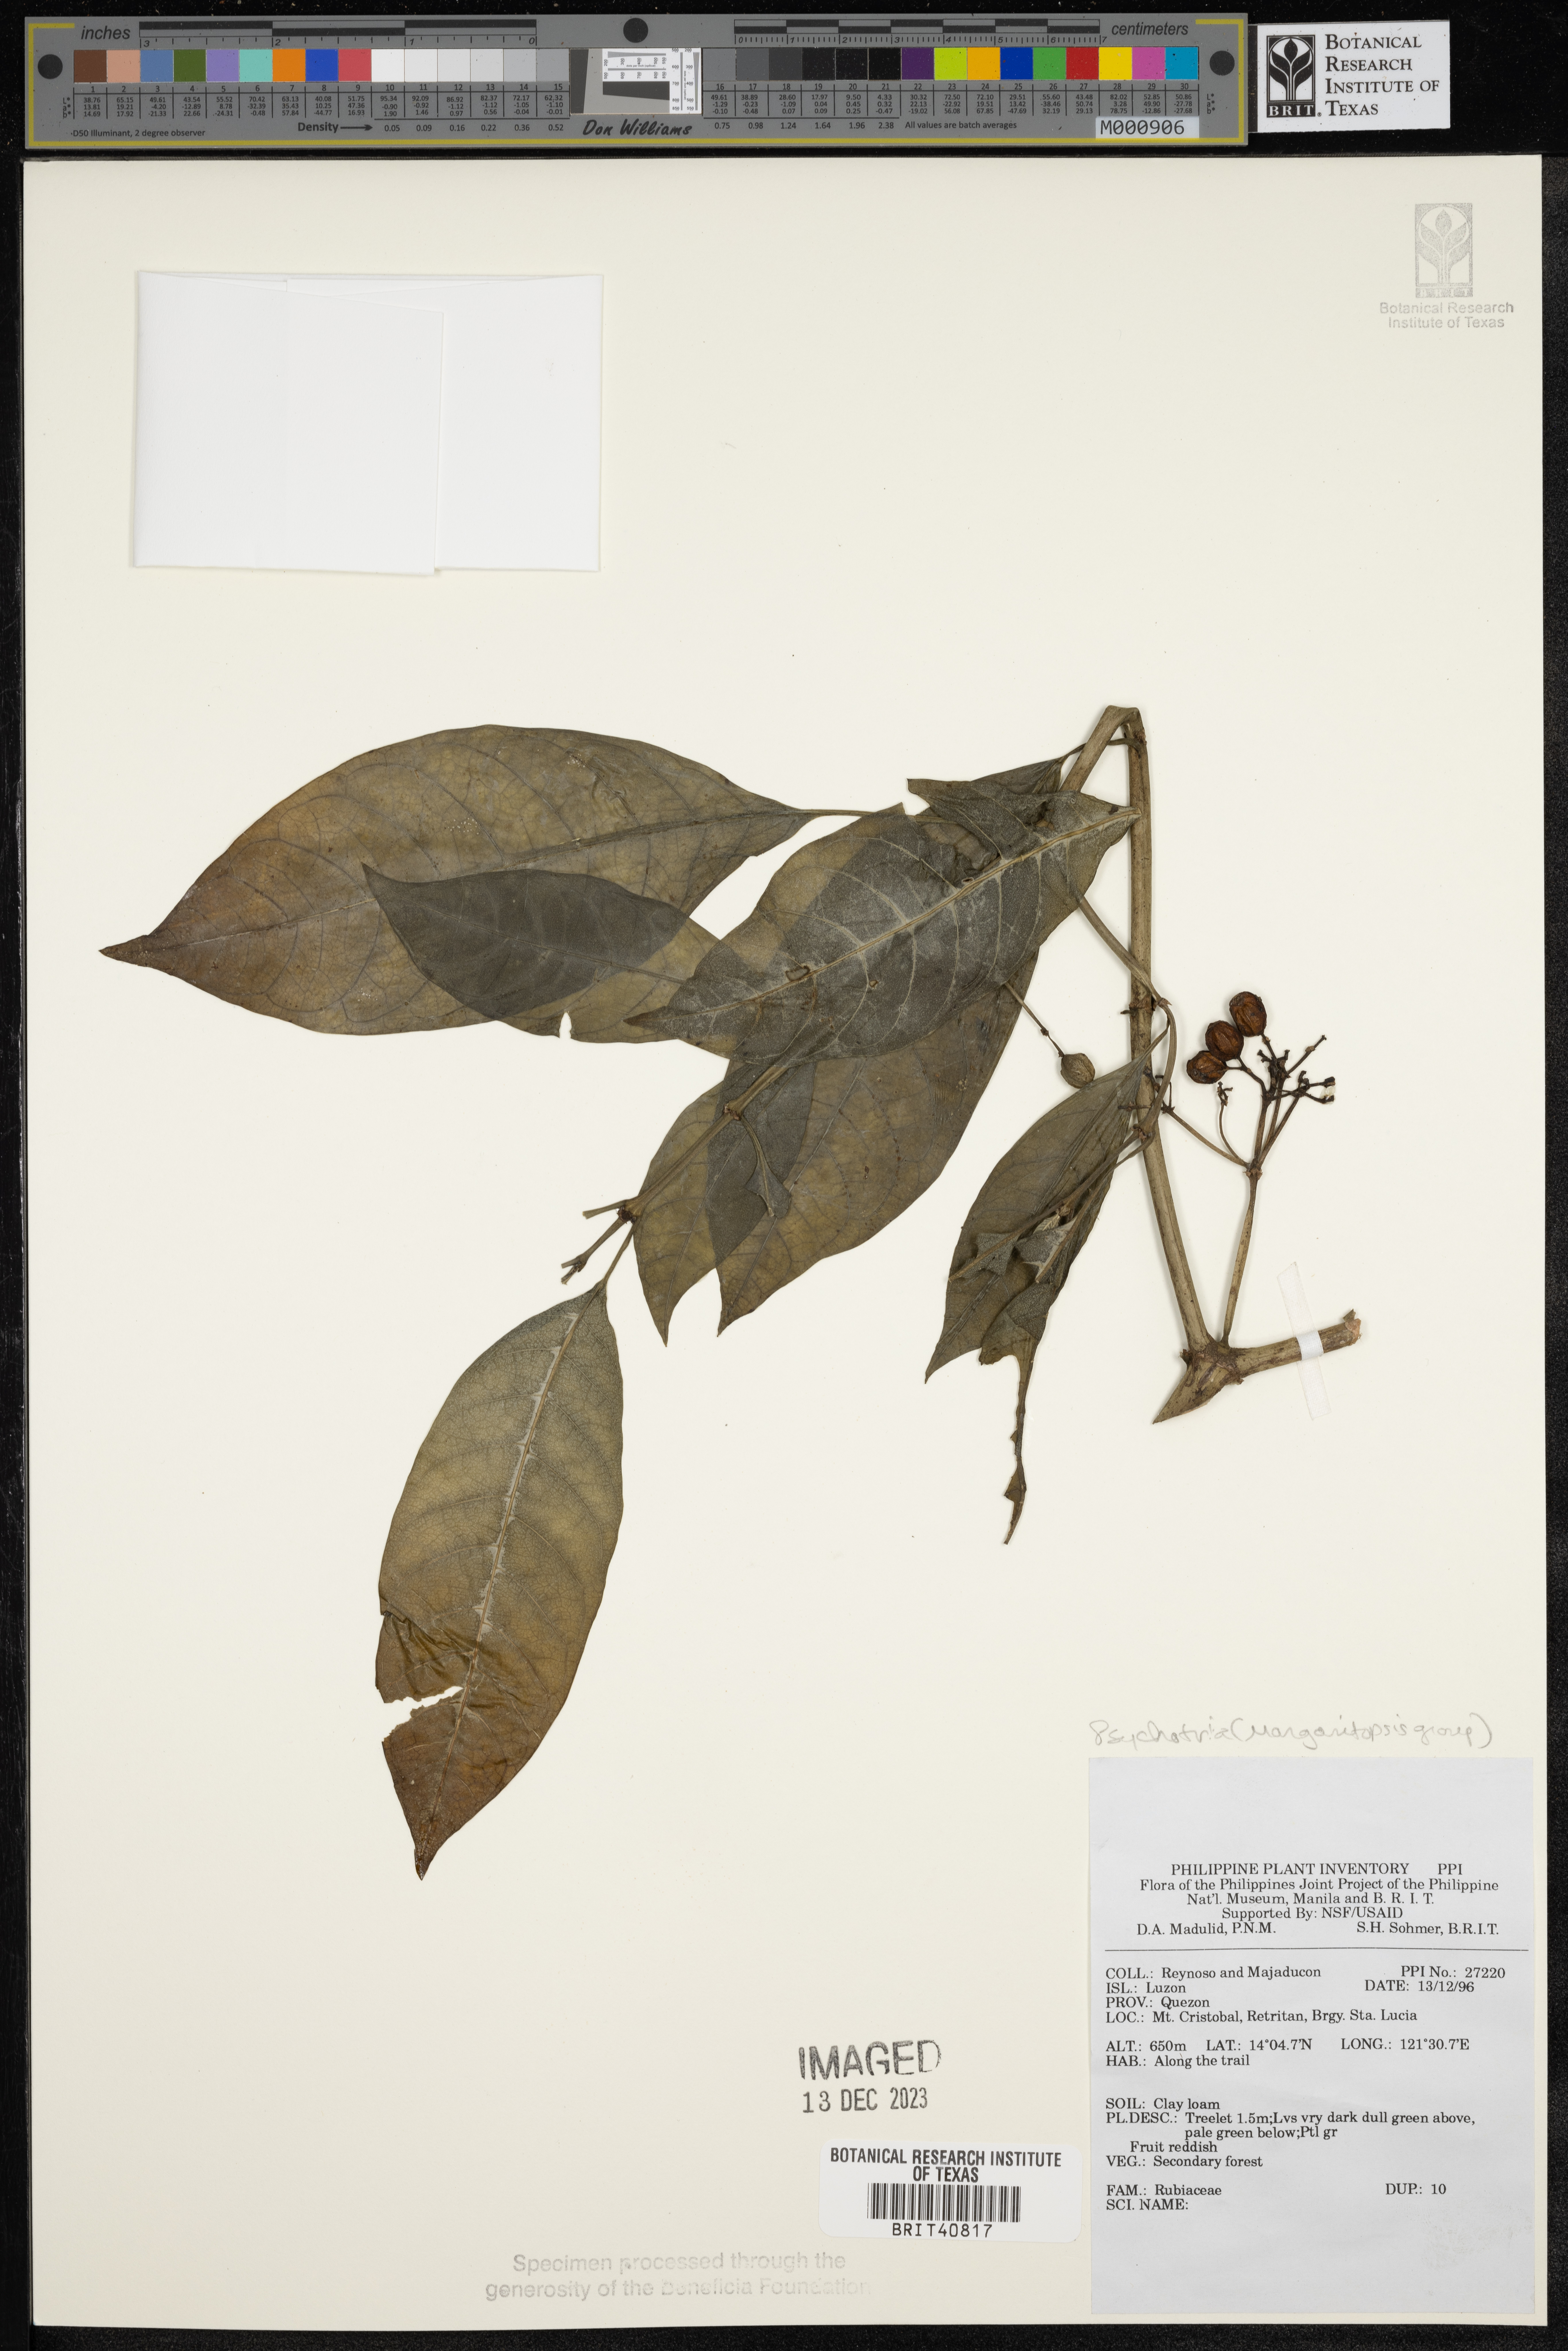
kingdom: Plantae
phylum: Tracheophyta
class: Magnoliopsida
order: Gentianales
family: Rubiaceae
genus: Psychotria
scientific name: Psychotria
